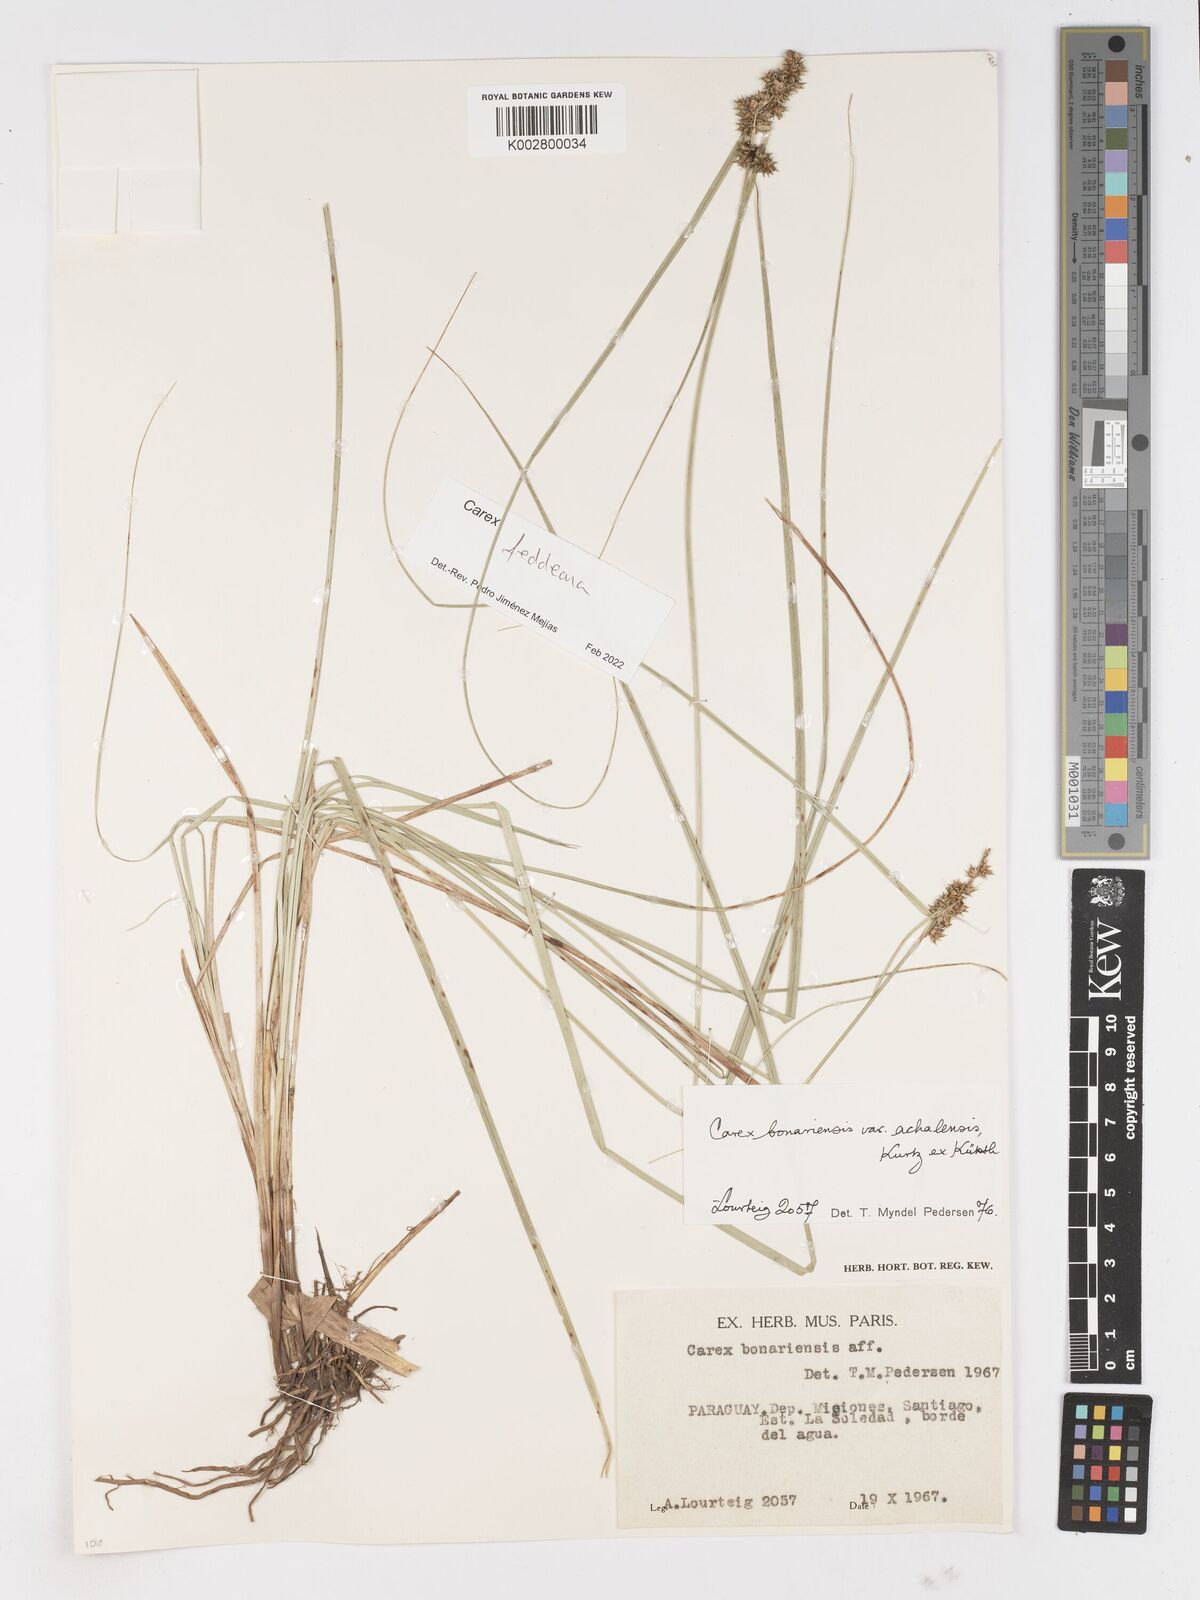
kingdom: Plantae
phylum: Tracheophyta
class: Liliopsida
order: Poales
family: Cyperaceae
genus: Carex
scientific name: Carex bonariensis
